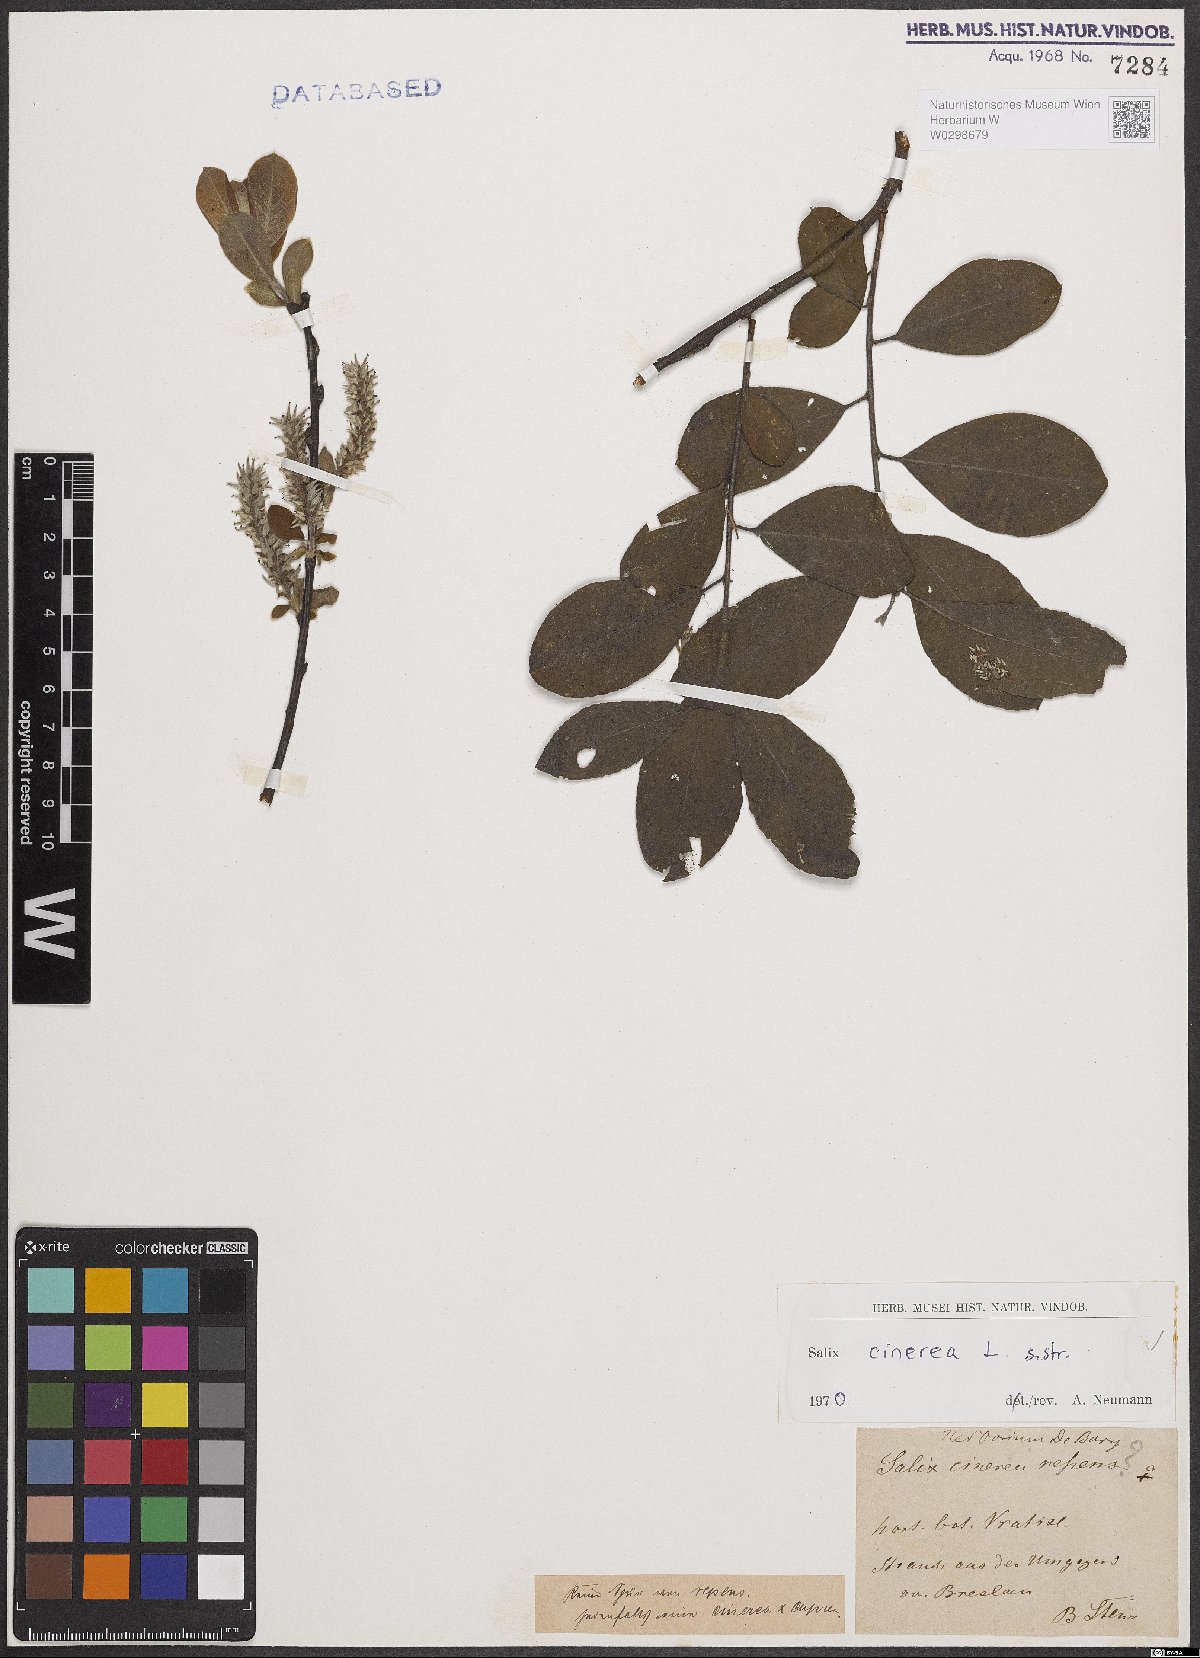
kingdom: Plantae
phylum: Tracheophyta
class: Magnoliopsida
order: Malpighiales
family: Salicaceae
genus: Salix
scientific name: Salix cinerea
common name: Common sallow
